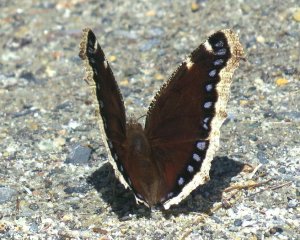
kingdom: Animalia
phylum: Arthropoda
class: Insecta
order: Lepidoptera
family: Nymphalidae
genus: Nymphalis
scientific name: Nymphalis antiopa
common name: Mourning Cloak
